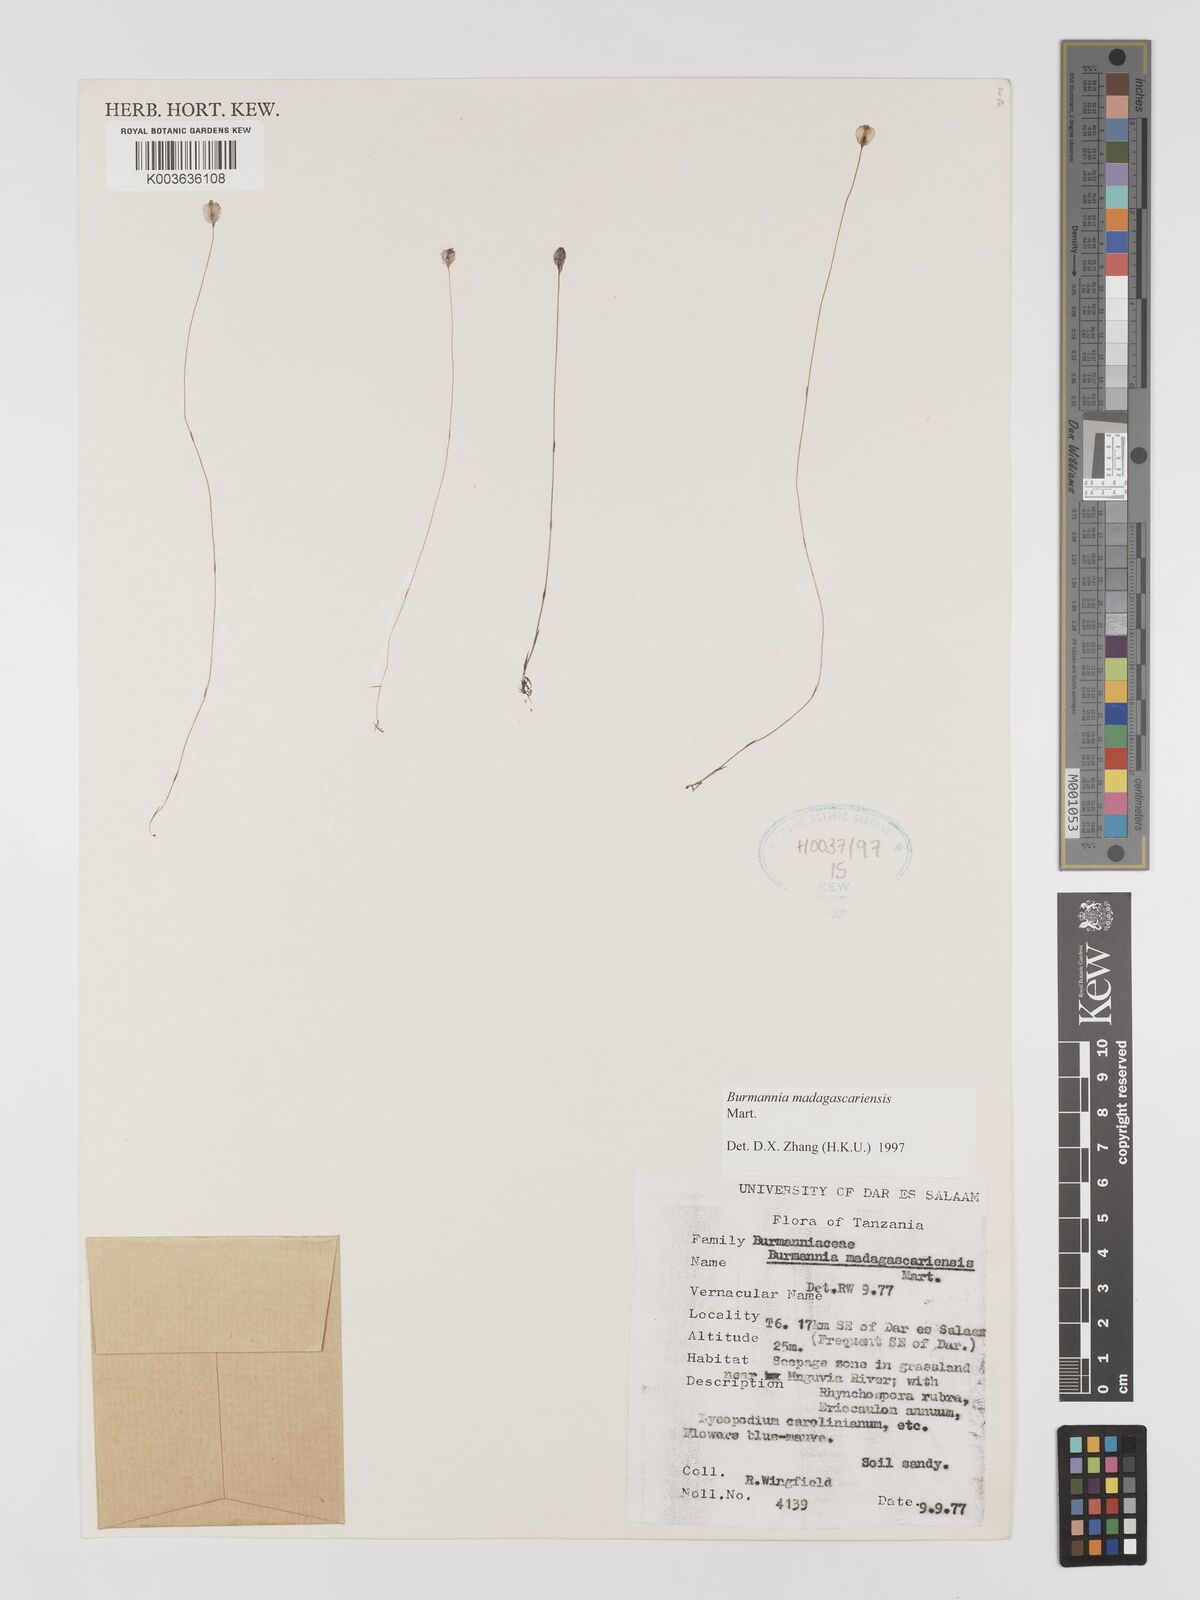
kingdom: Plantae
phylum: Tracheophyta
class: Liliopsida
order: Dioscoreales
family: Burmanniaceae
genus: Burmannia
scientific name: Burmannia madagascariensis
